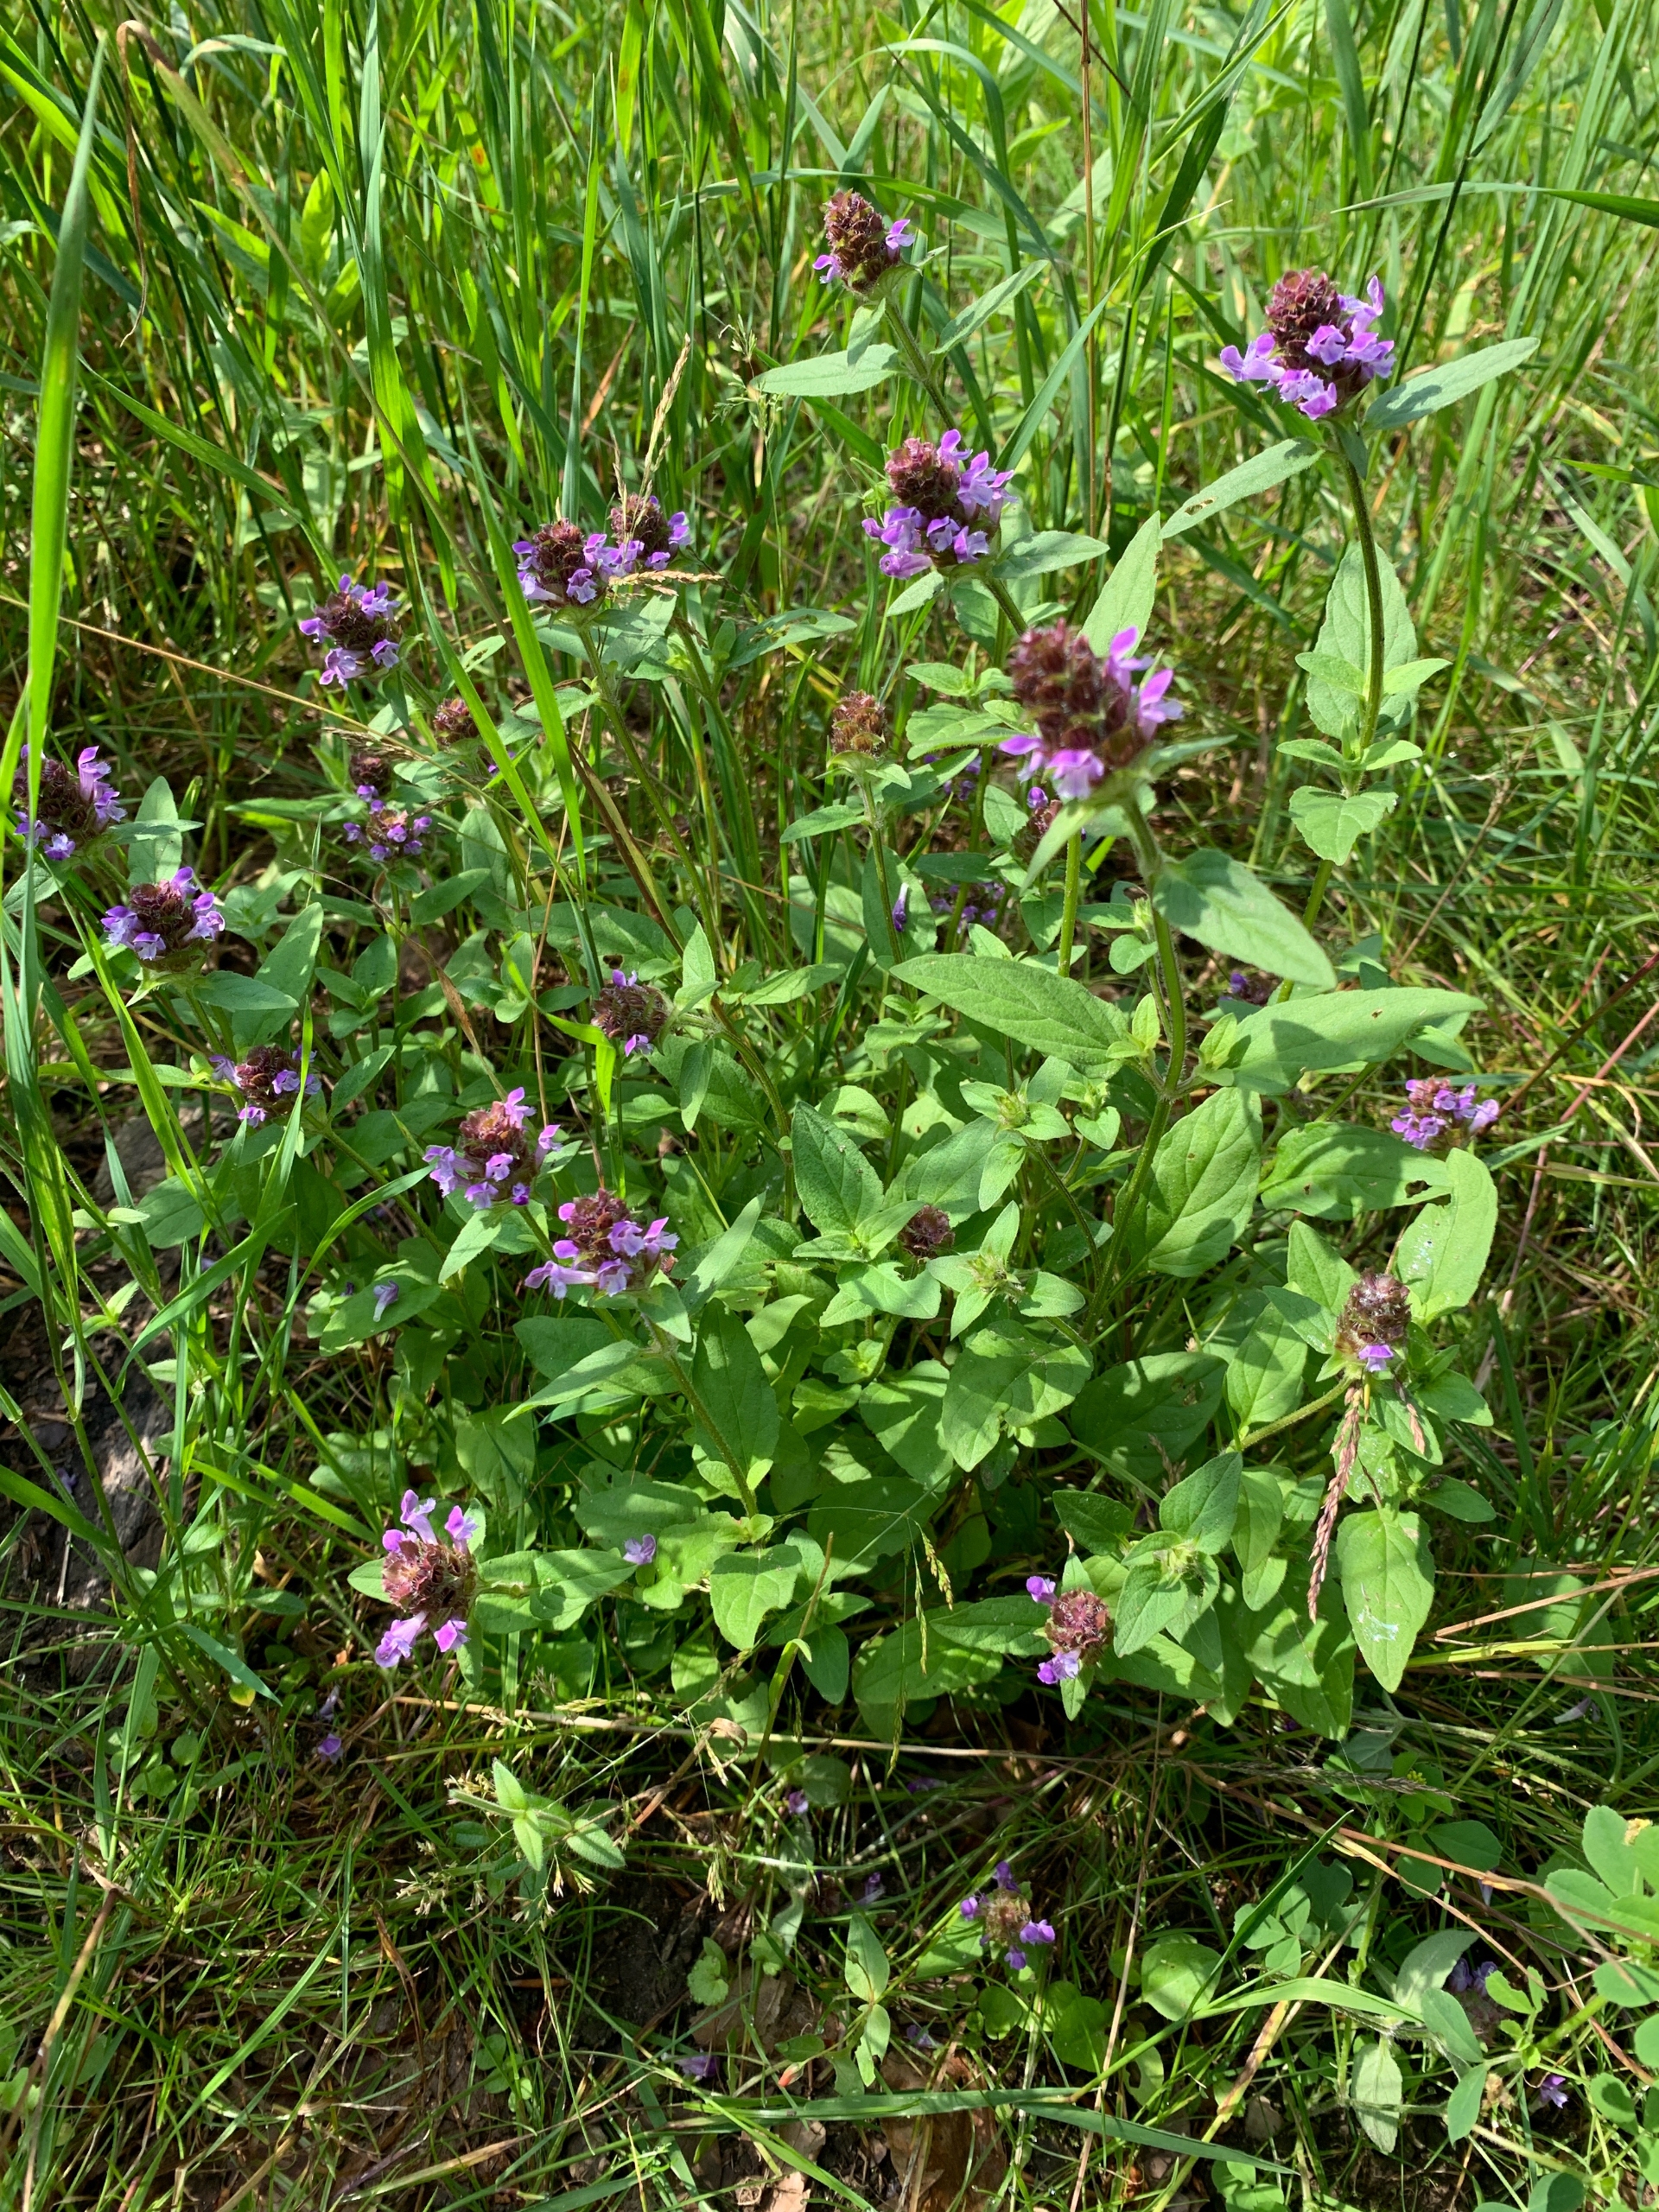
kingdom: Plantae
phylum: Tracheophyta
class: Magnoliopsida
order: Lamiales
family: Lamiaceae
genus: Prunella
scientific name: Prunella vulgaris
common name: Almindelig brunelle
